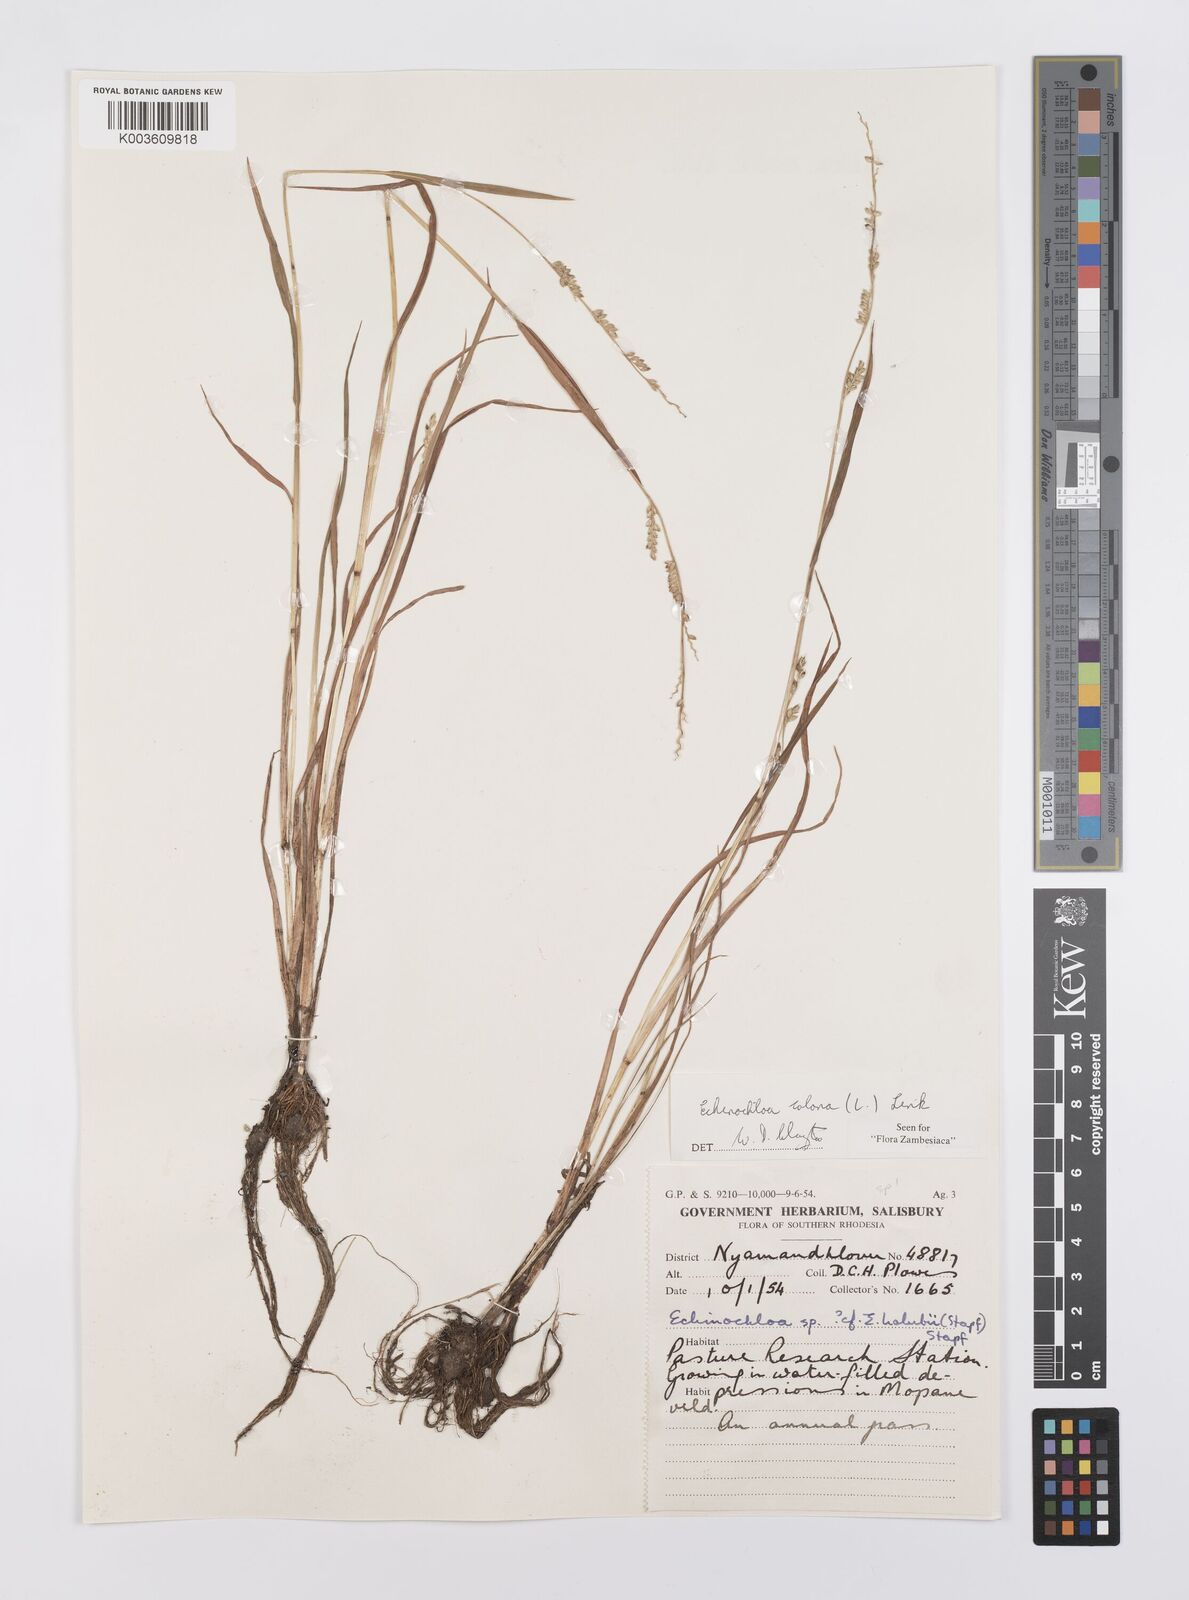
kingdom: Plantae
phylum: Tracheophyta
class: Liliopsida
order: Poales
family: Poaceae
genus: Echinochloa
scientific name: Echinochloa colonum
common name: Jungle rice
